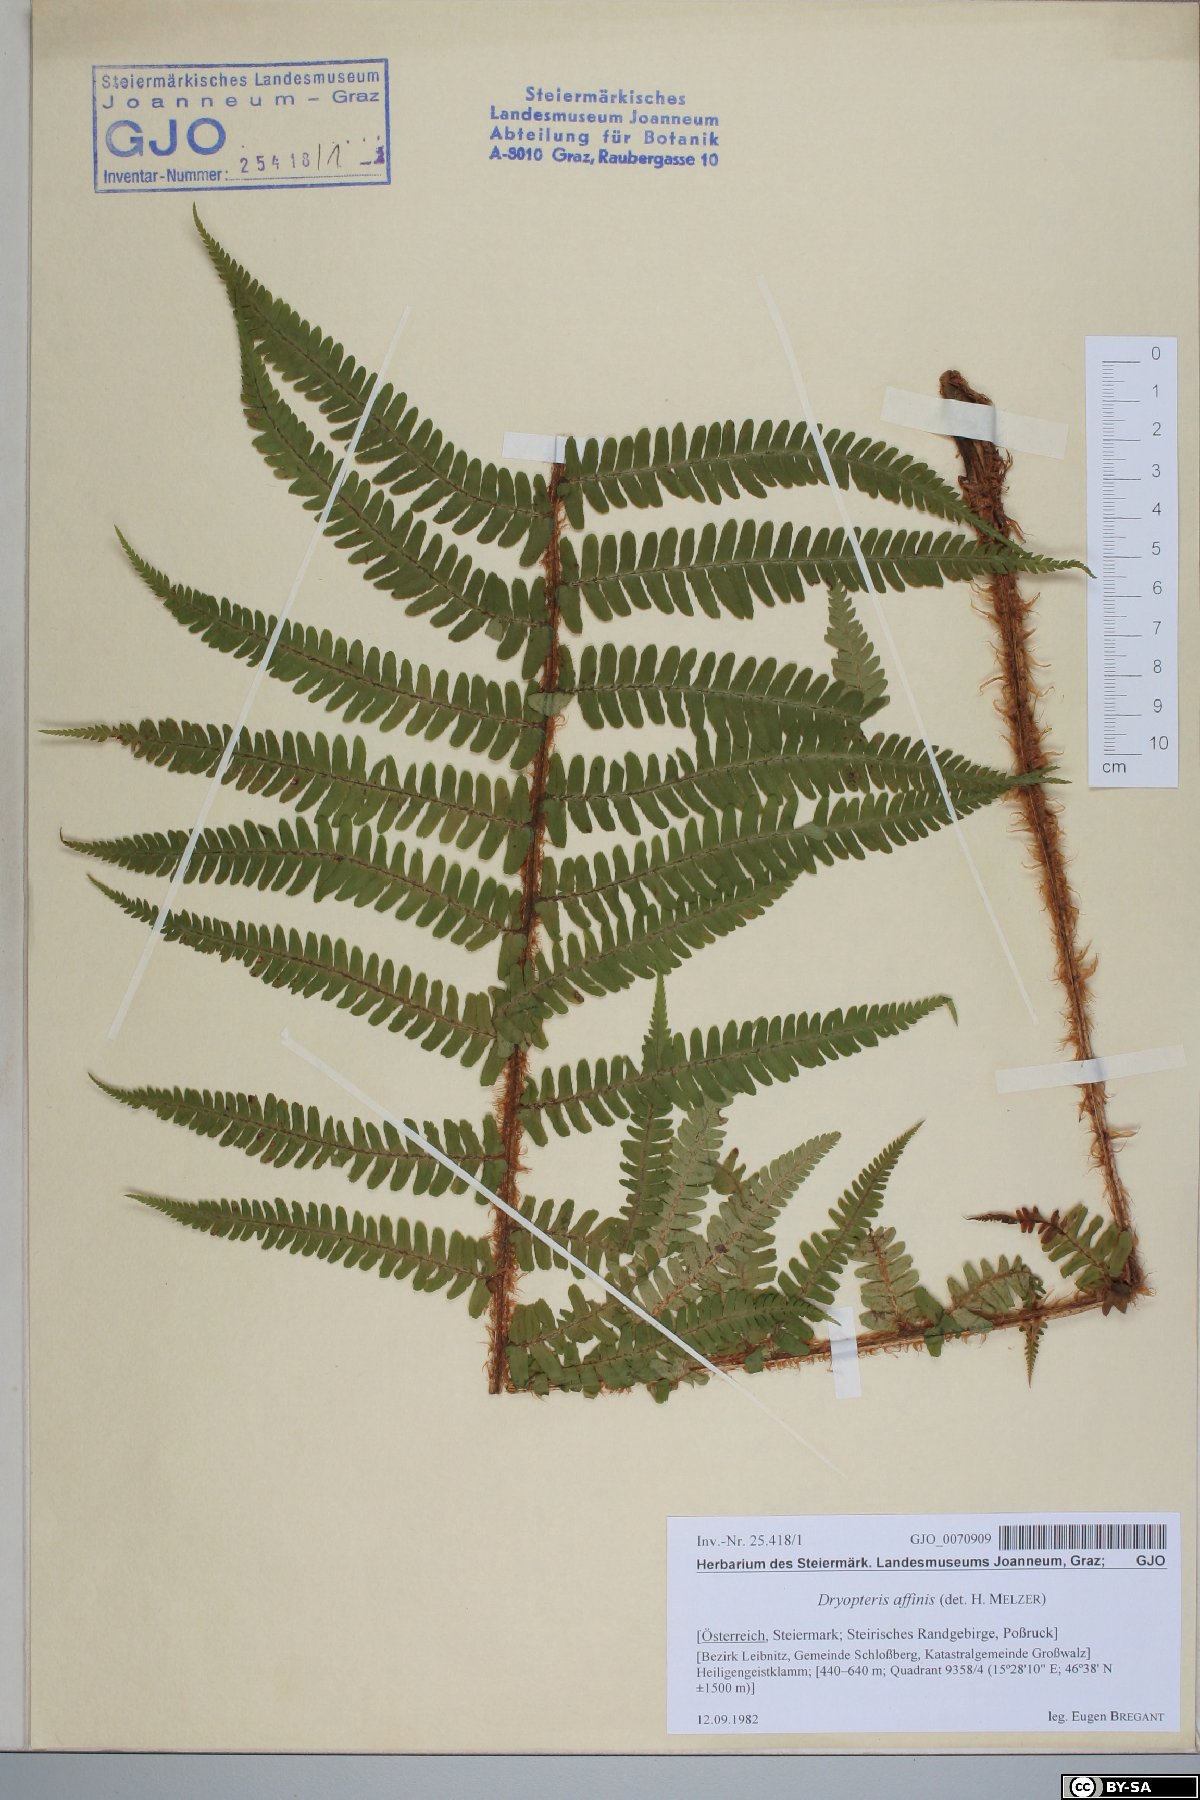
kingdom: Plantae
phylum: Tracheophyta
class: Polypodiopsida
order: Polypodiales
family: Dryopteridaceae
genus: Dryopteris
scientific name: Dryopteris affinis
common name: Scaly male fern
